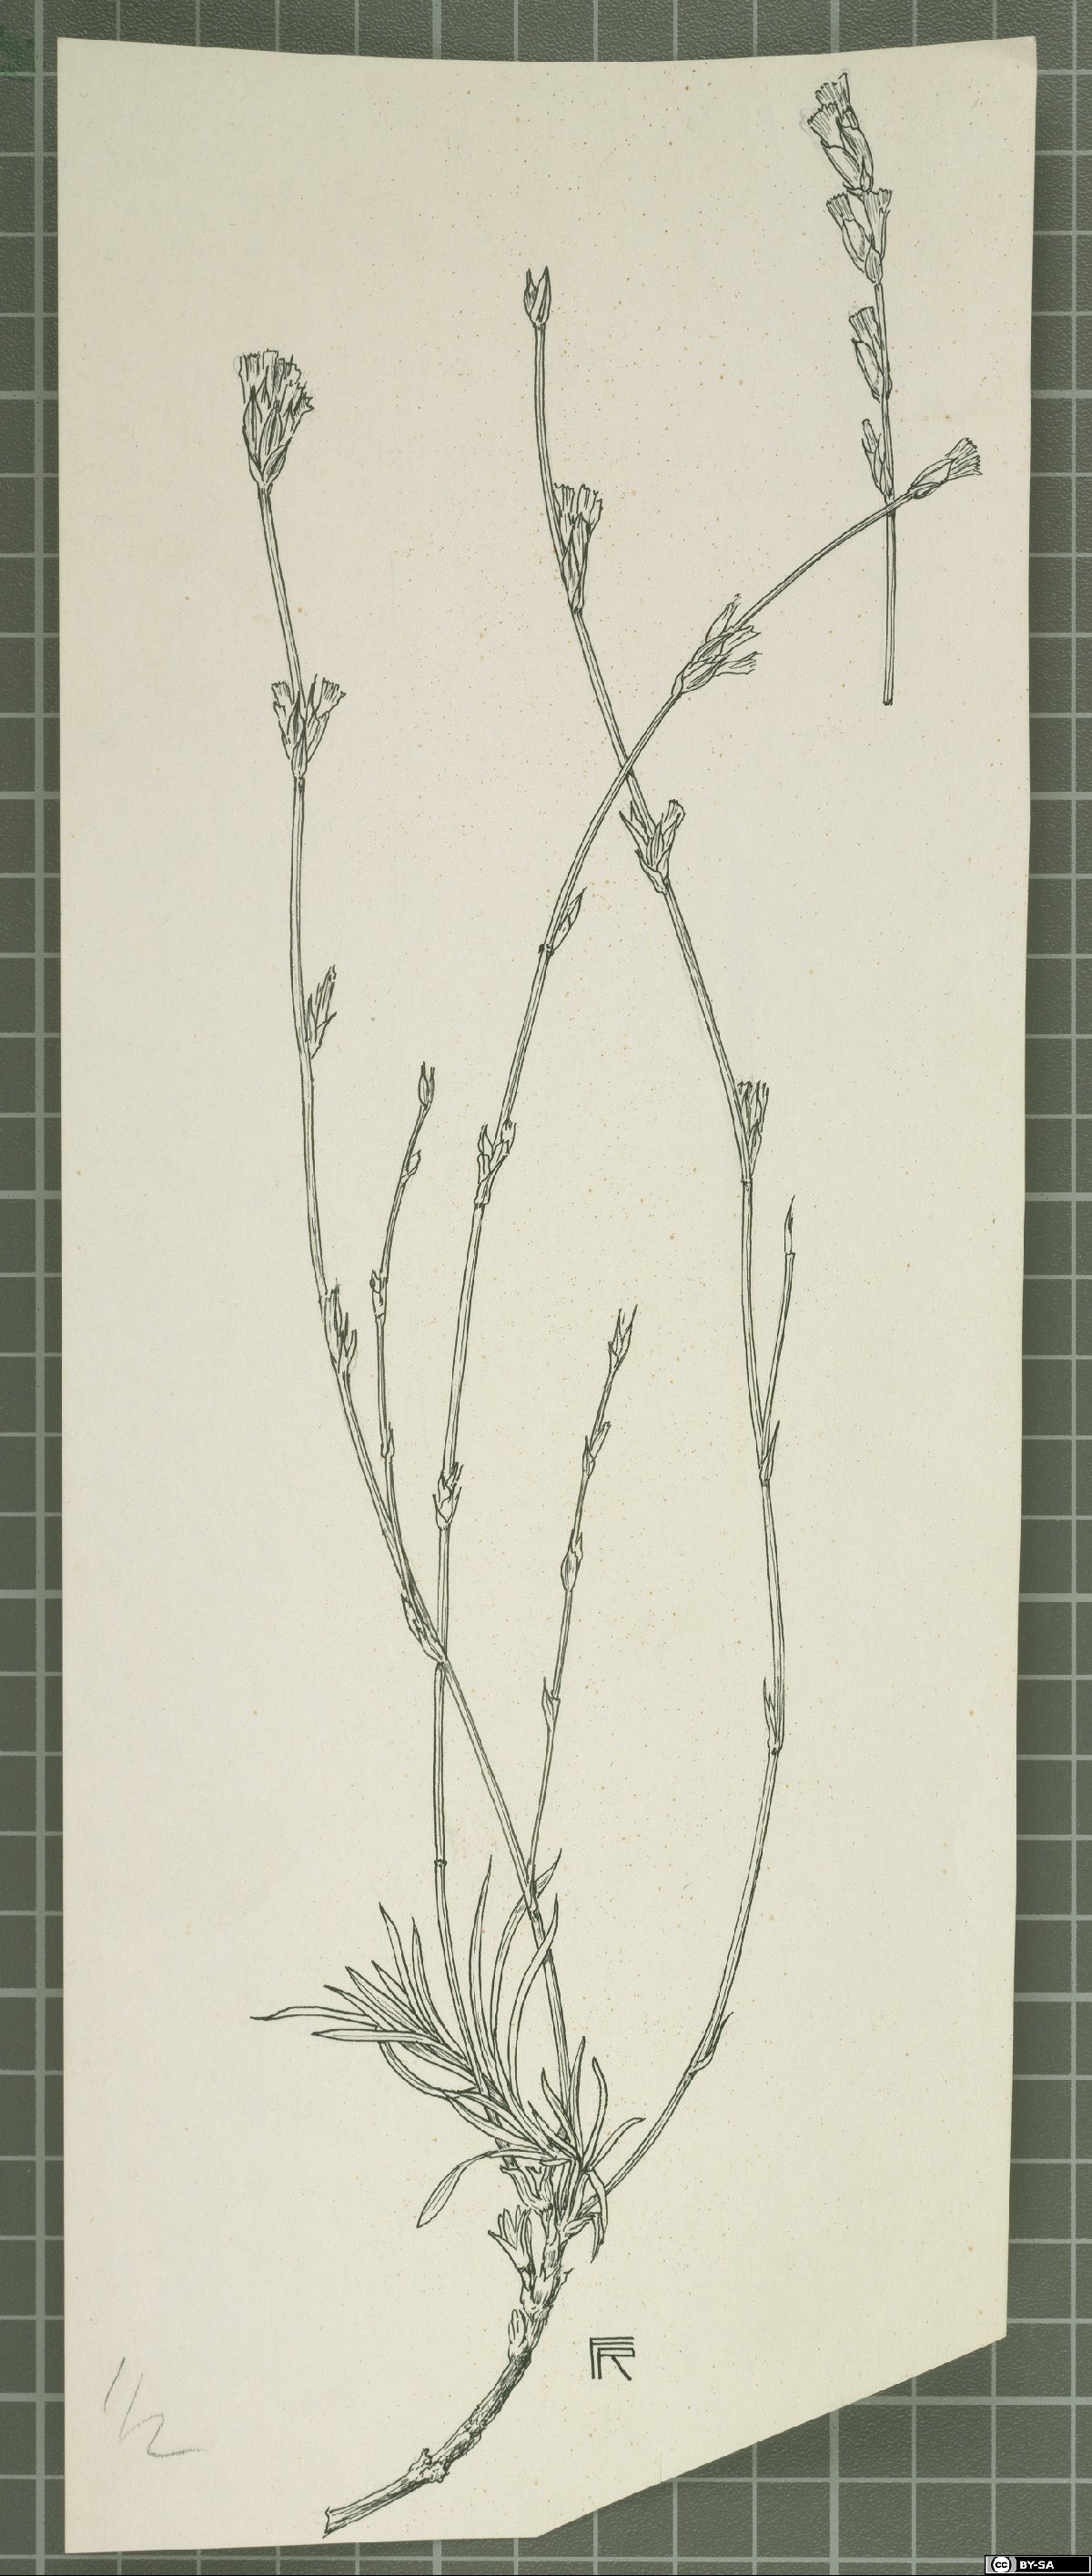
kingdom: Plantae
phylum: Tracheophyta
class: Magnoliopsida
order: Caryophyllales
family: Plumbaginaceae
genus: Acantholimon
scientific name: Acantholimon inerme
